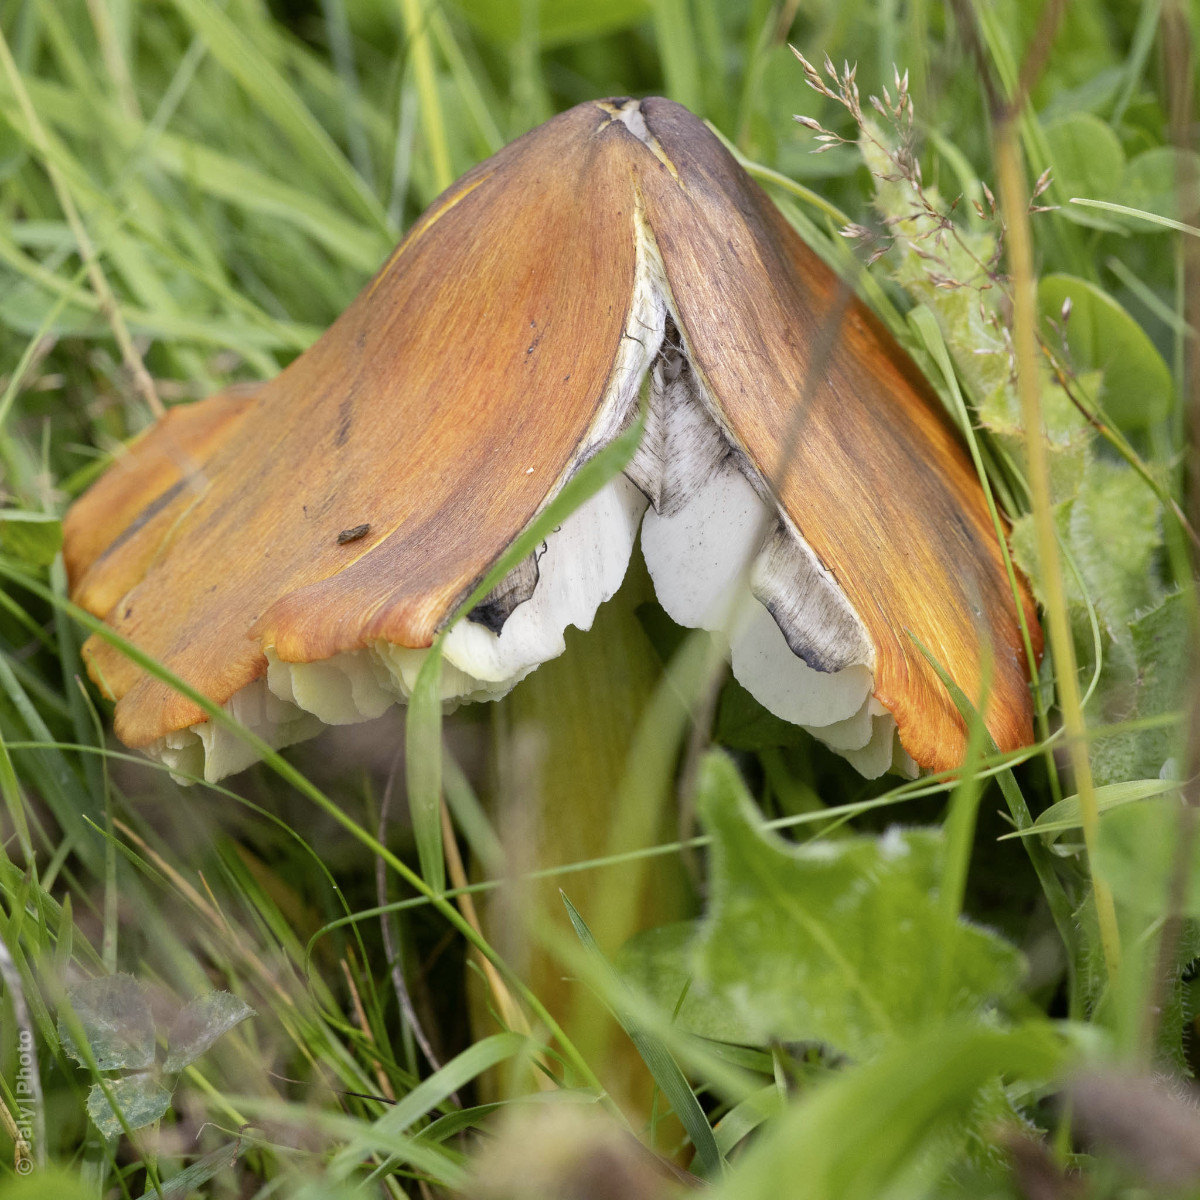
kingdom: Fungi
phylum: Basidiomycota
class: Agaricomycetes
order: Agaricales
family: Hygrophoraceae
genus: Hygrocybe
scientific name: Hygrocybe conica
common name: kegle-vokshat
